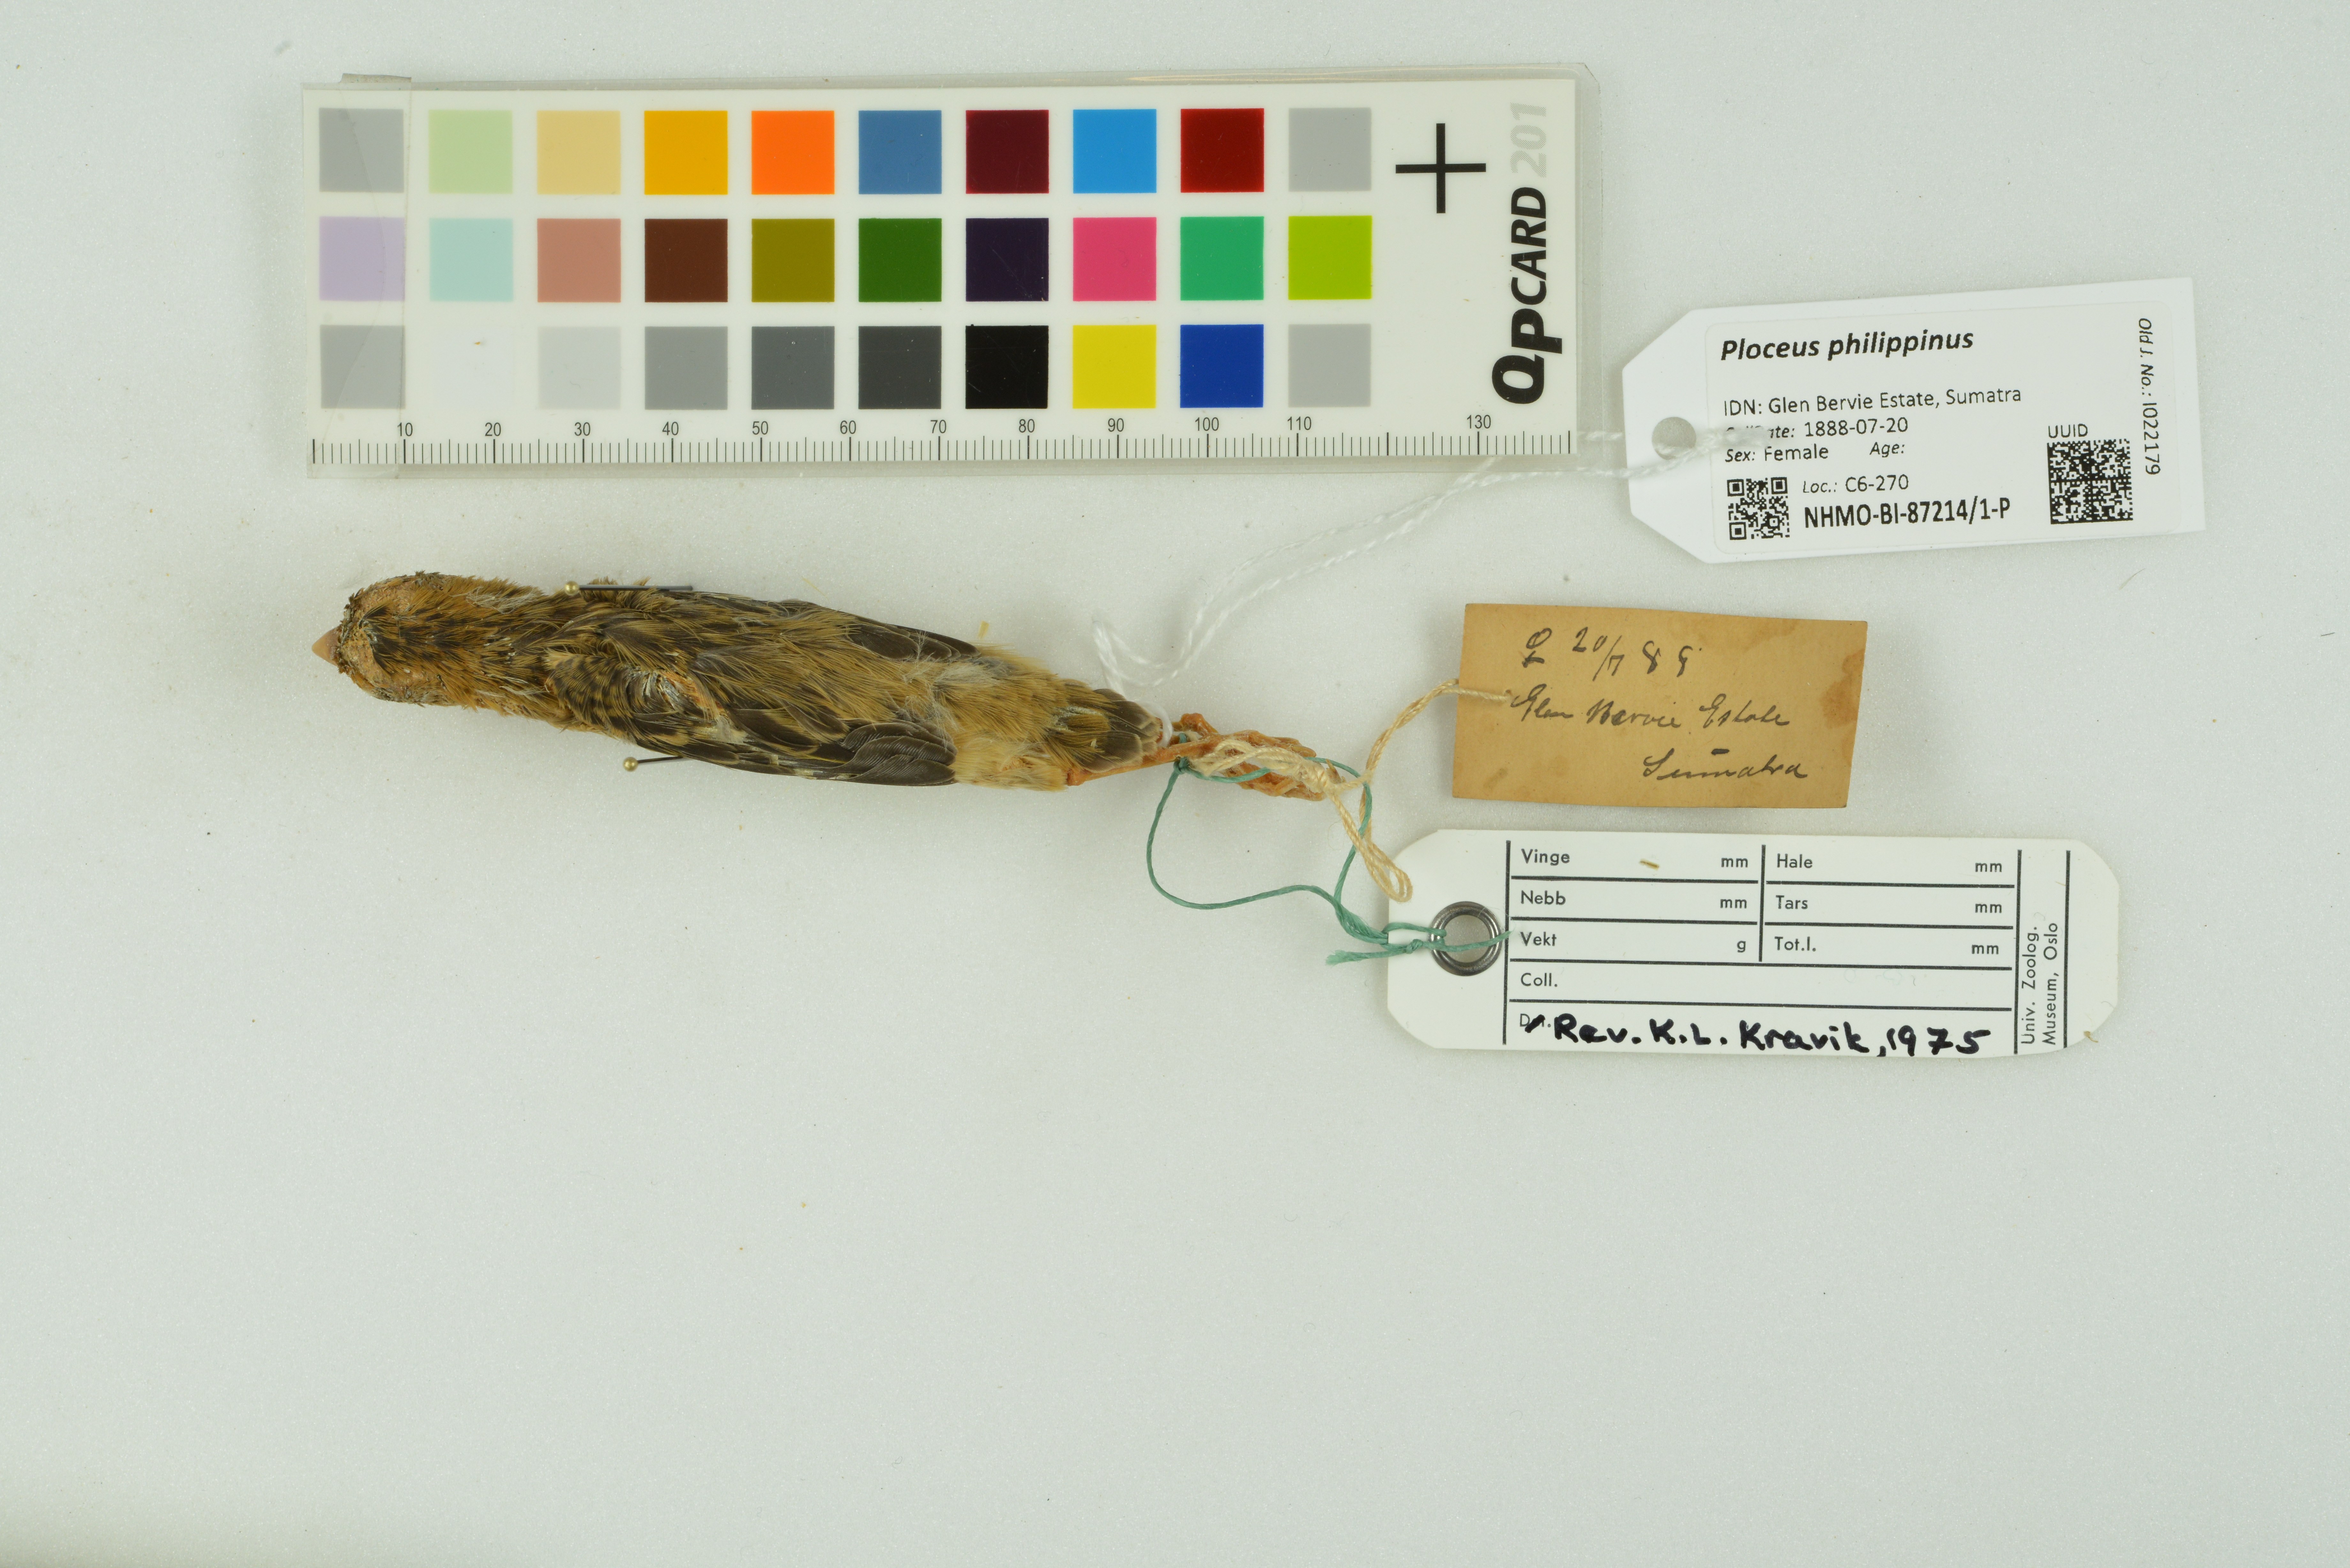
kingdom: Animalia
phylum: Chordata
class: Aves
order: Passeriformes
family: Ploceidae
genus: Ploceus
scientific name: Ploceus philippinus
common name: Baya weaver
